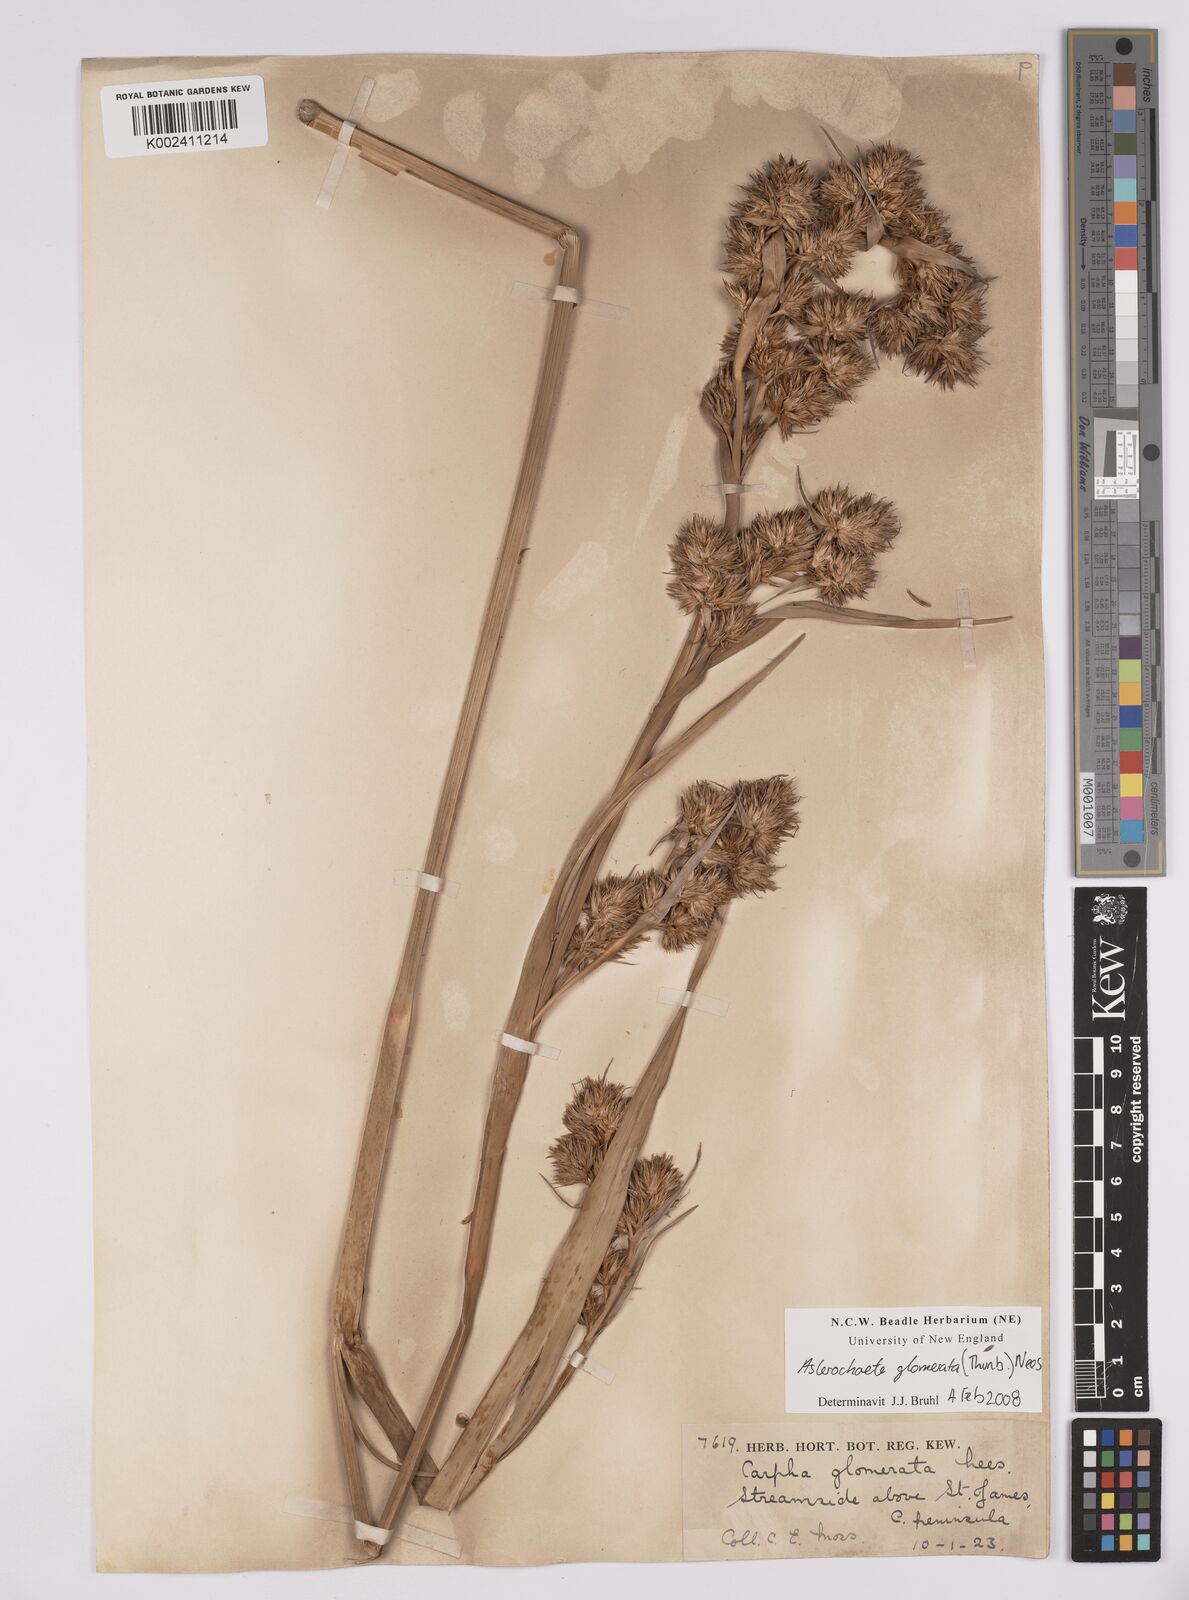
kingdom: Plantae
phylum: Tracheophyta
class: Liliopsida
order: Poales
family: Cyperaceae
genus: Carpha
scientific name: Carpha glomerata
